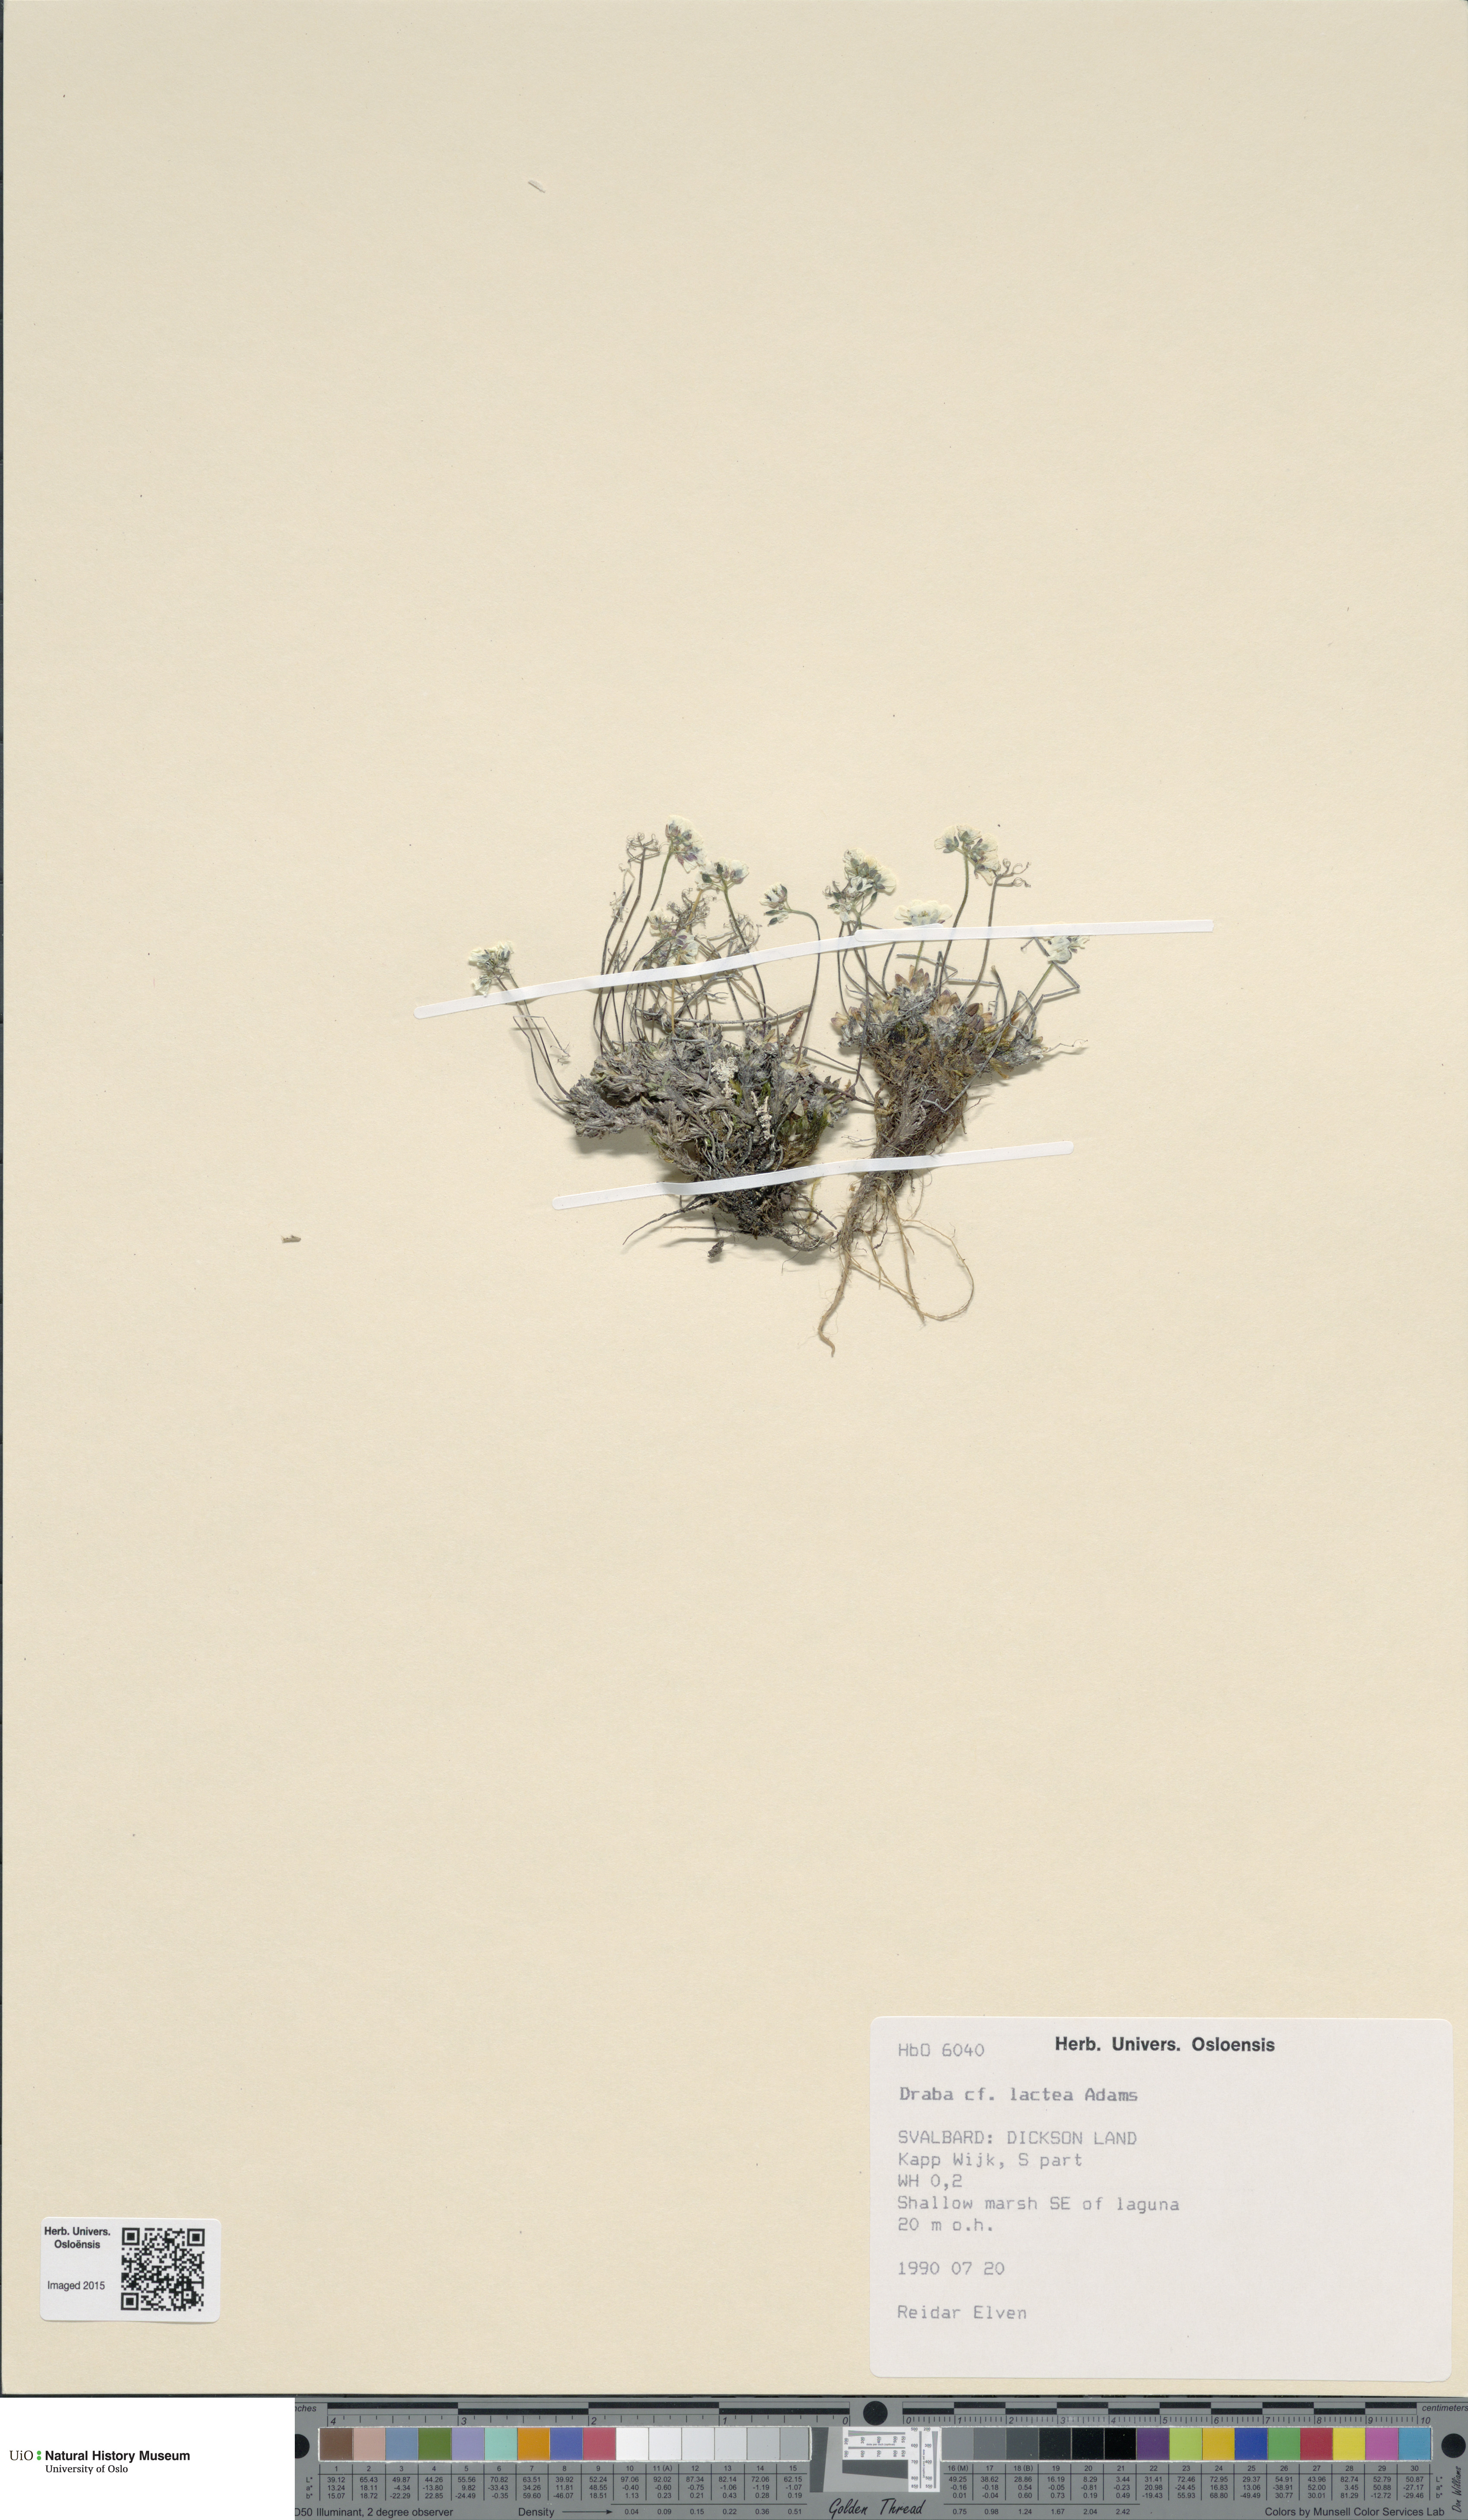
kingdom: Plantae
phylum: Tracheophyta
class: Magnoliopsida
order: Brassicales
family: Brassicaceae
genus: Draba
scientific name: Draba lactea
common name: Milky draba
